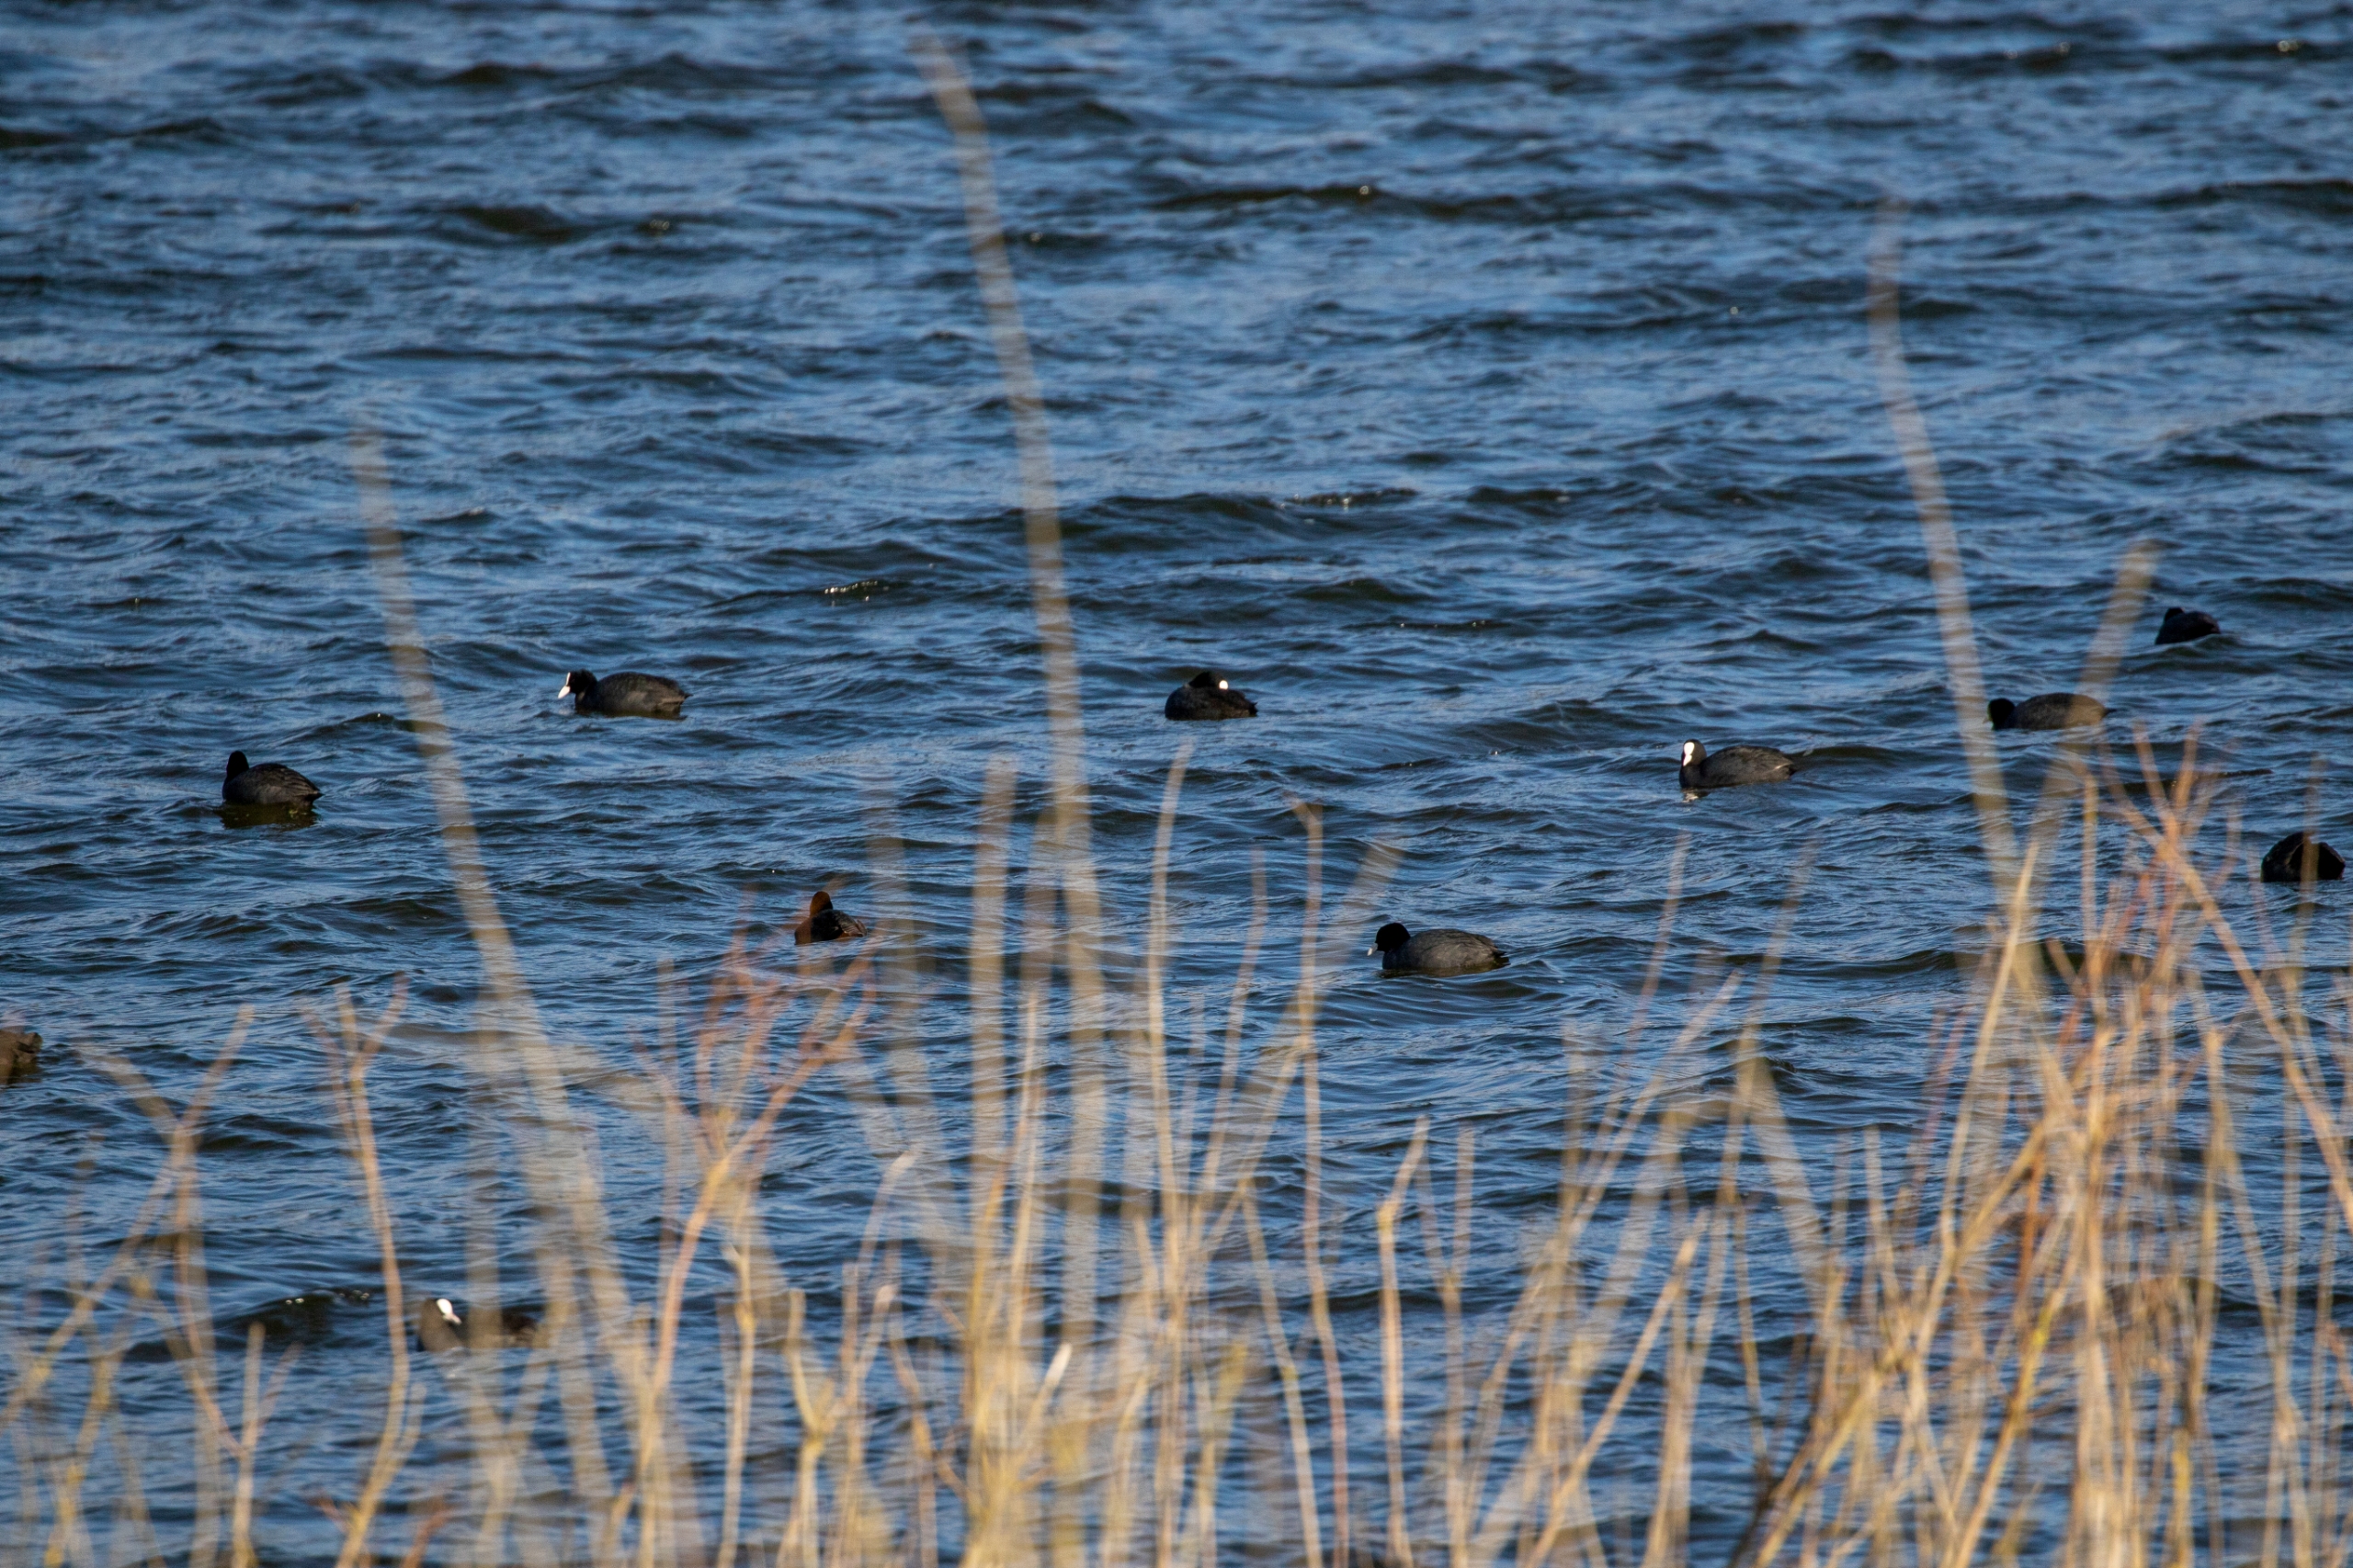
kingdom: Animalia
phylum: Chordata
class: Aves
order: Gruiformes
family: Rallidae
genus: Fulica
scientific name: Fulica atra
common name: Blishøne
